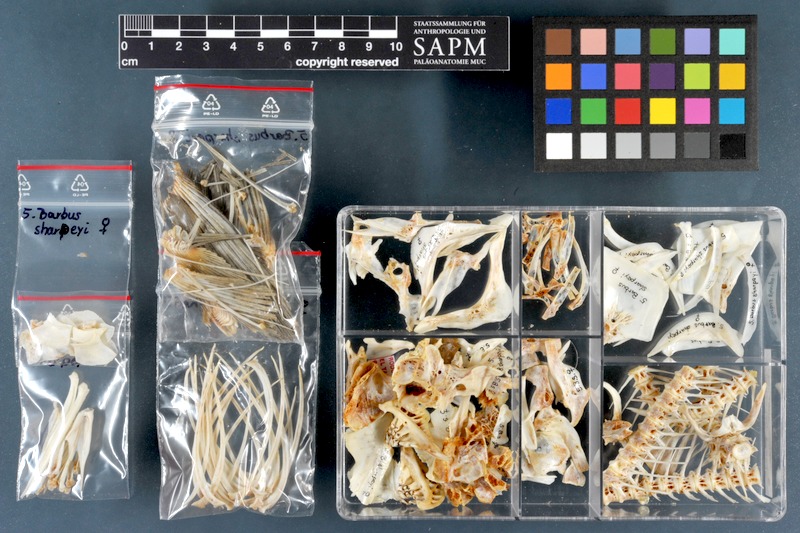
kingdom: Animalia
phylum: Chordata
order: Cypriniformes
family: Cyprinidae
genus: Mesopotamichthys
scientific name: Mesopotamichthys sharpeyi
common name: Binni
